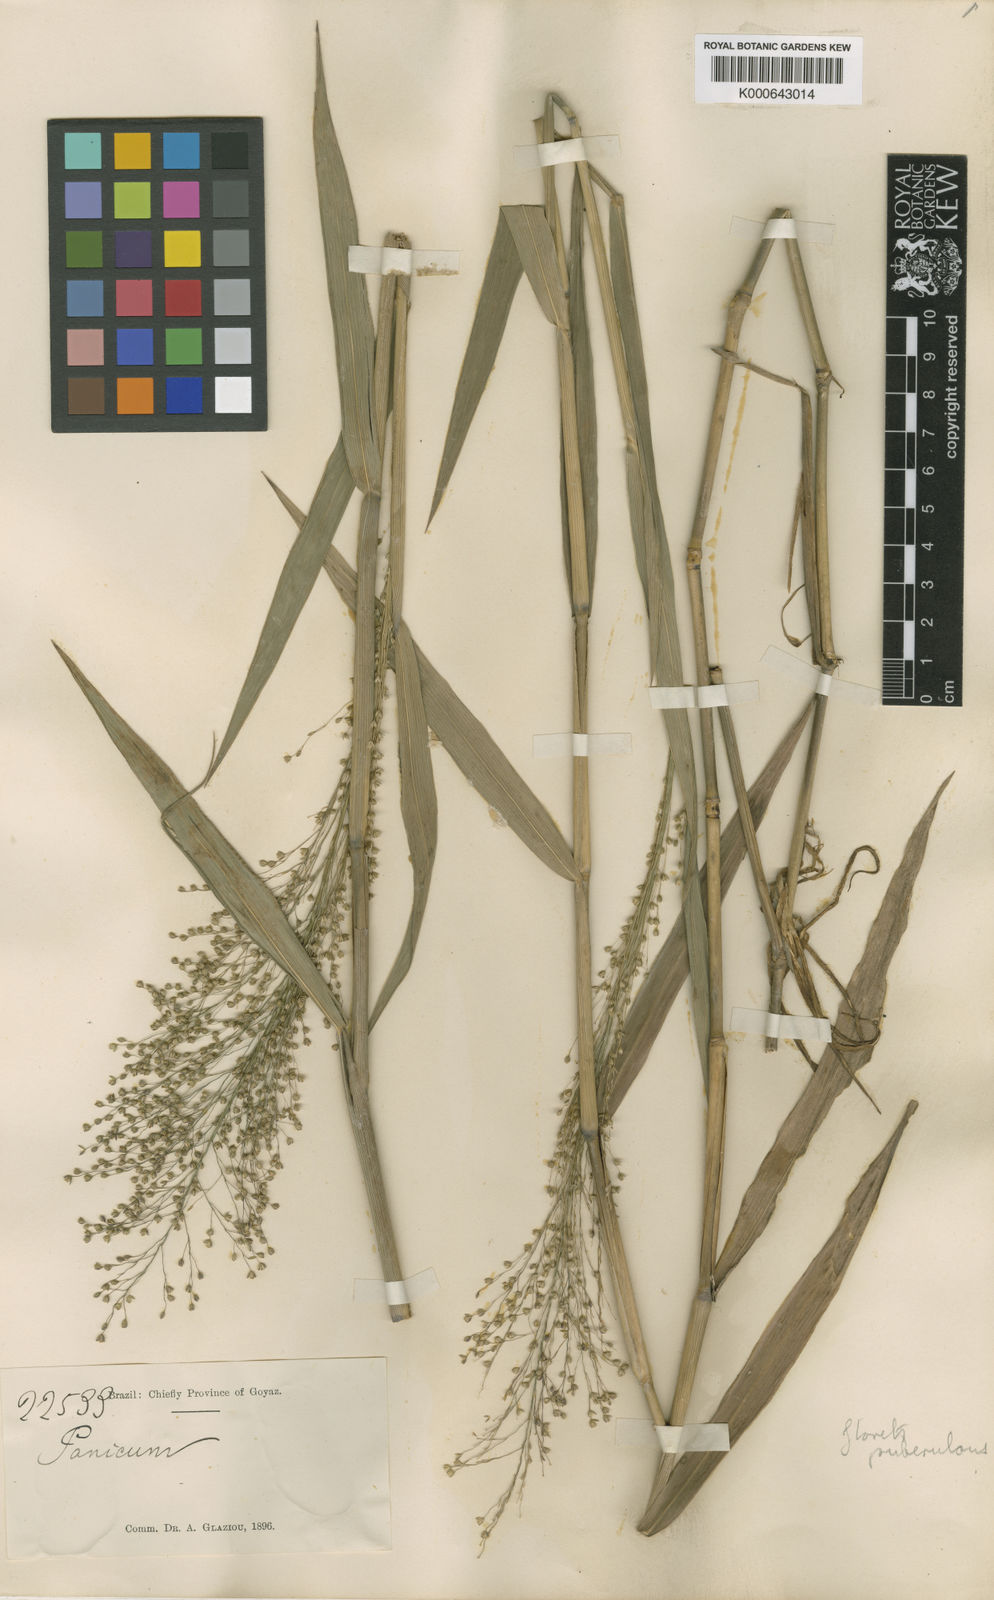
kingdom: Plantae
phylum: Tracheophyta
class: Liliopsida
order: Poales
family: Poaceae
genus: Isachne
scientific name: Isachne goiasensis
